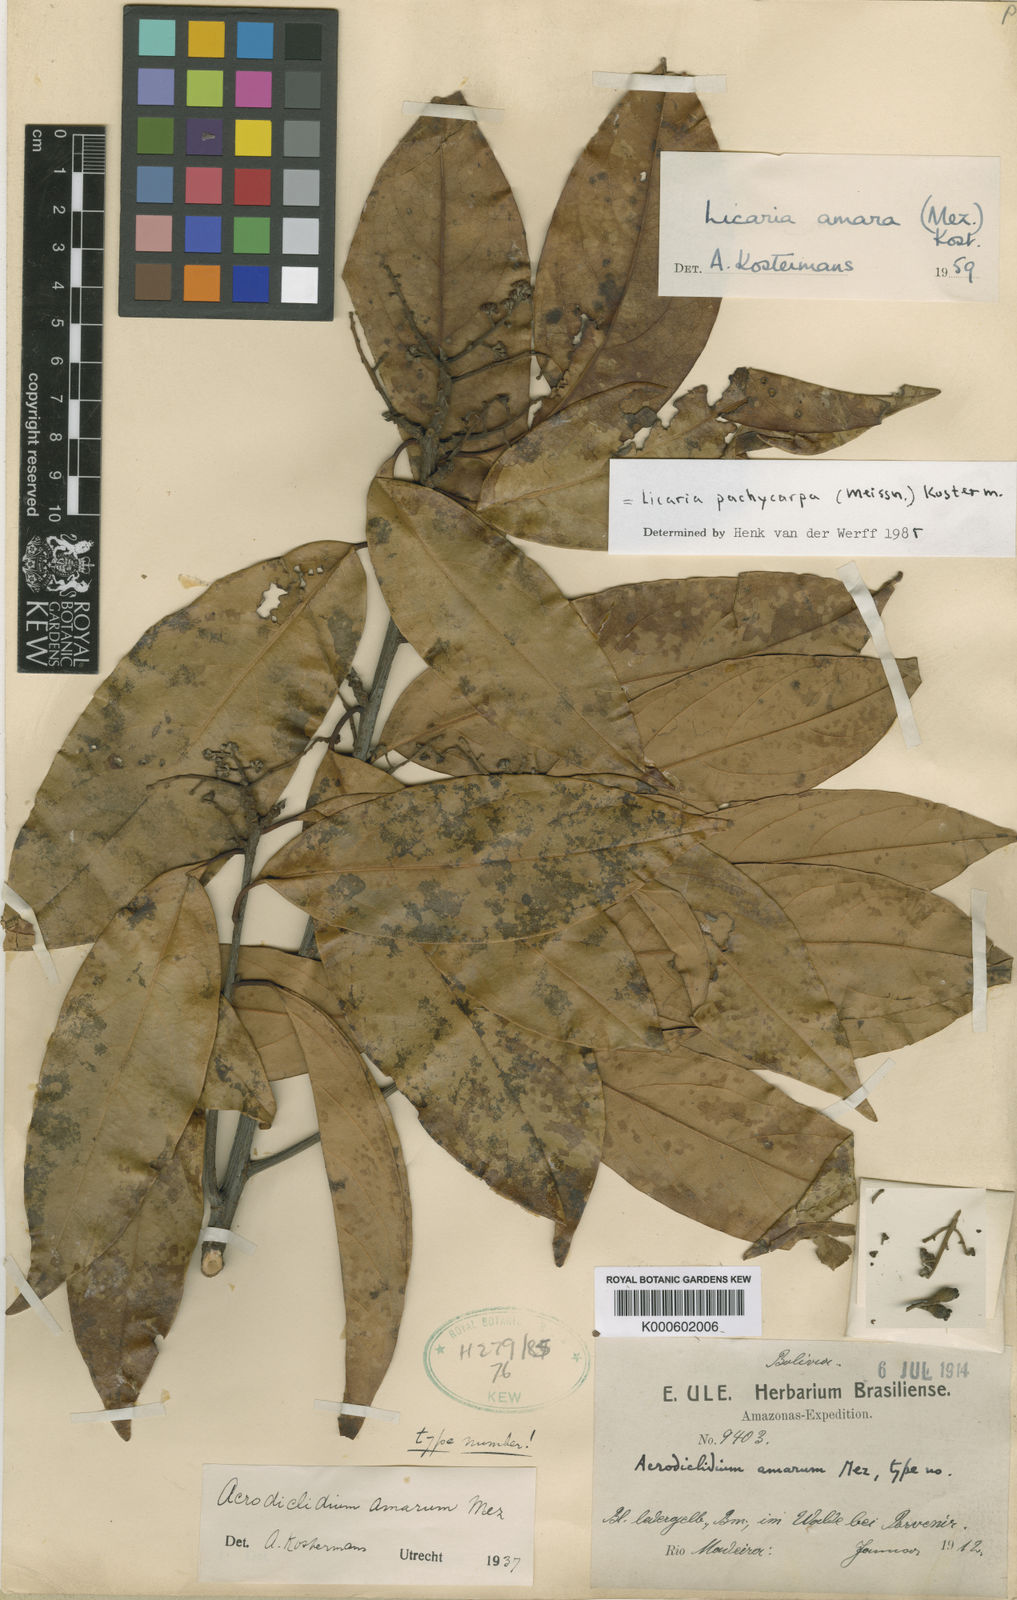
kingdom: Plantae
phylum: Tracheophyta
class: Magnoliopsida
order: Laurales
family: Lauraceae
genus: Licaria
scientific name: Licaria pachycarpa
